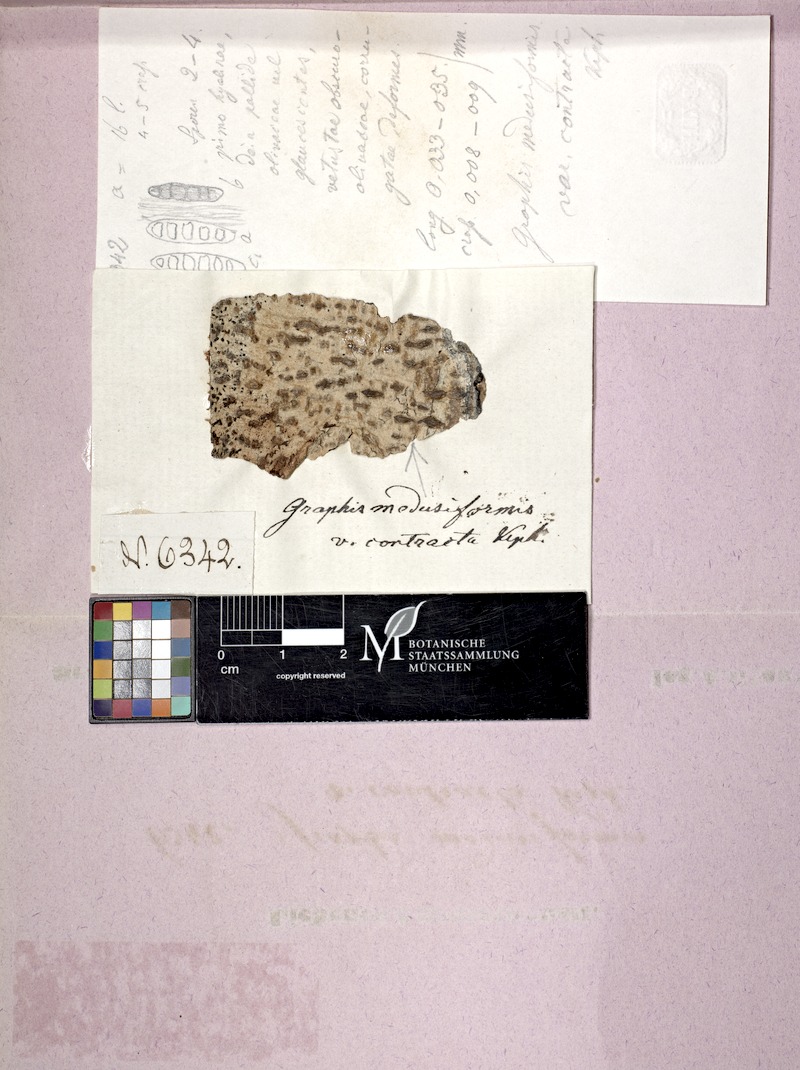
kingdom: Fungi
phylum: Ascomycota
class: Lecanoromycetes
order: Ostropales
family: Graphidaceae
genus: Phaeographis
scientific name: Phaeographis
